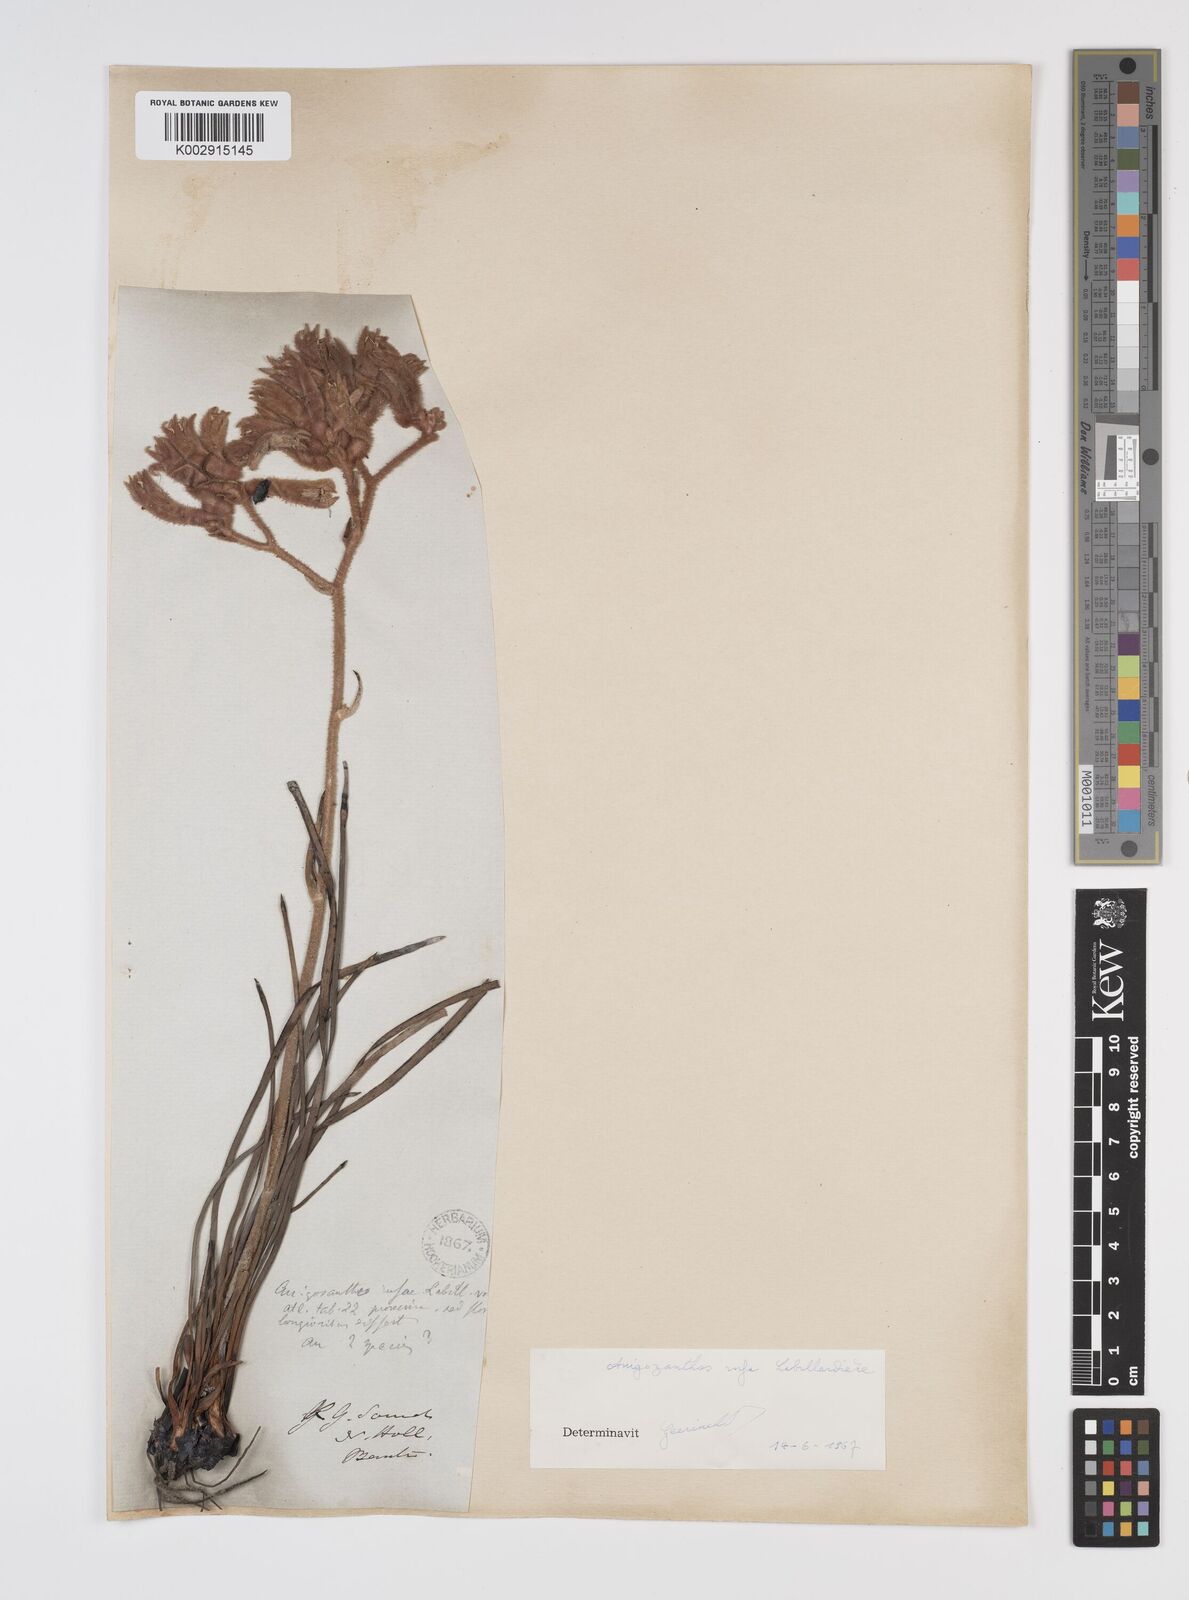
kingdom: Plantae
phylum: Tracheophyta
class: Liliopsida
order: Commelinales
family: Haemodoraceae
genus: Anigozanthos
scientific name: Anigozanthos rufus
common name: Red kangaroo-paw
